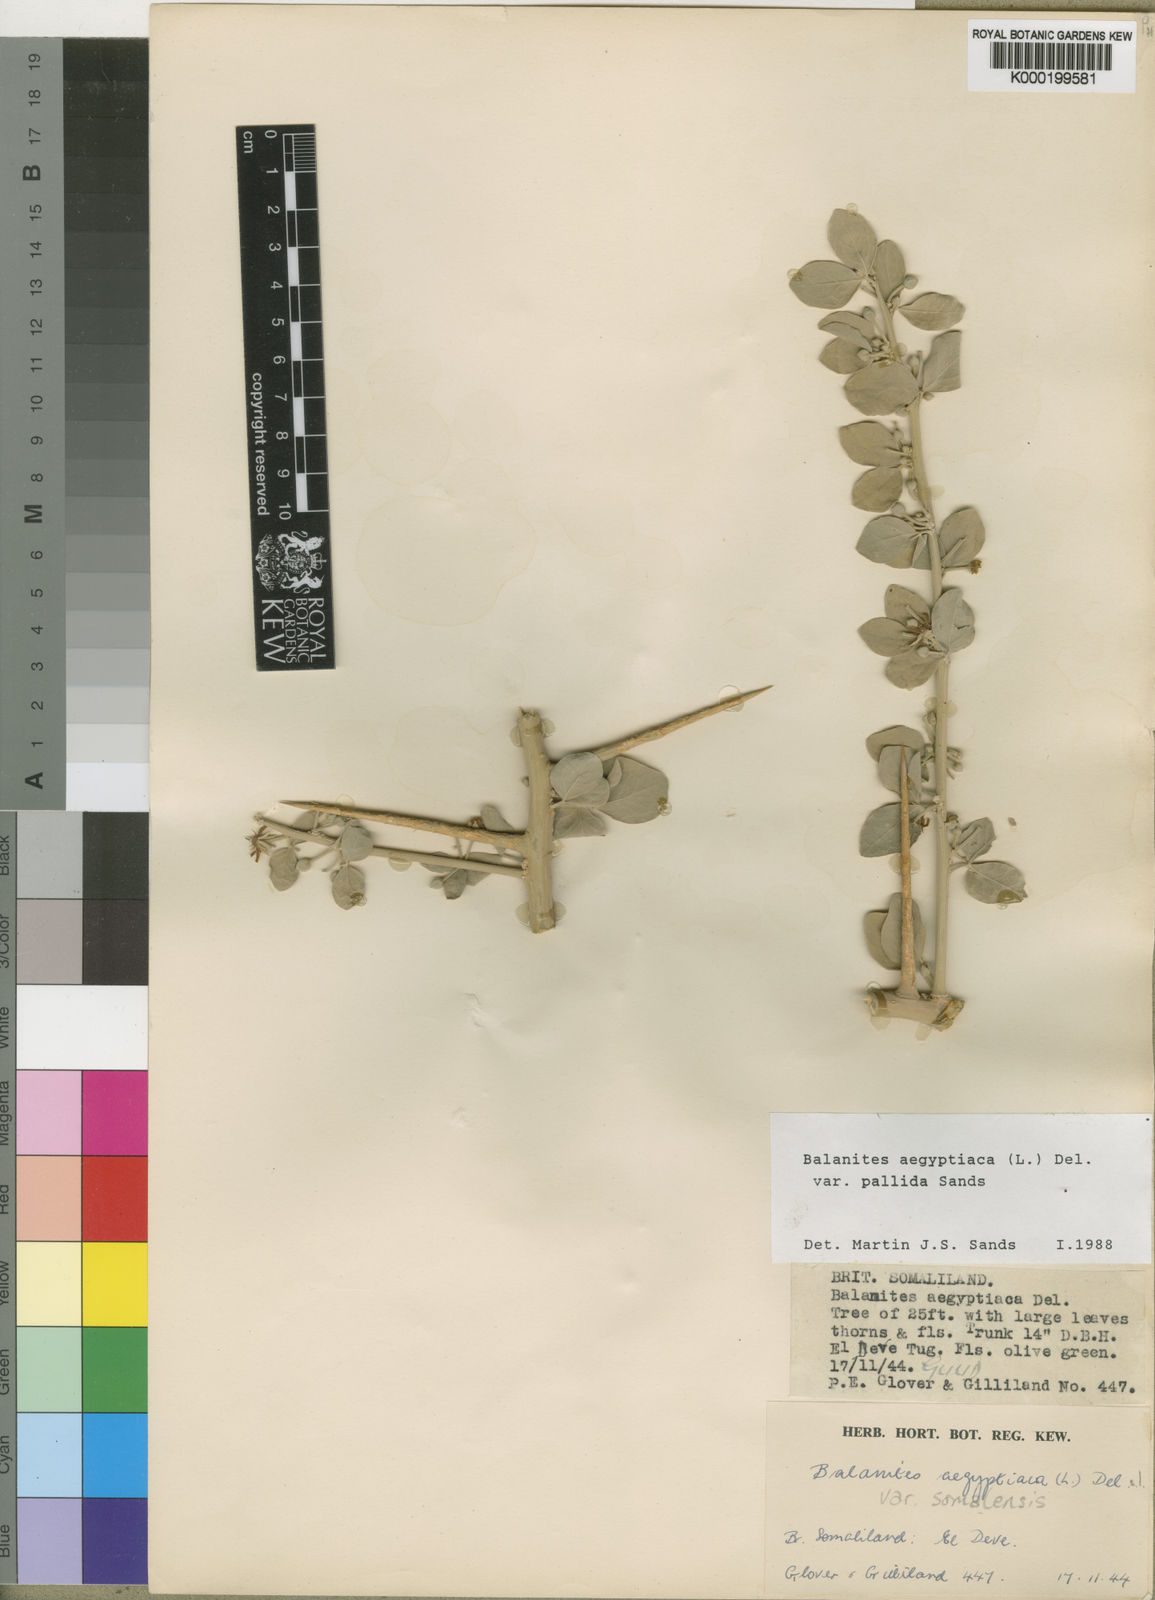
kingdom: Plantae
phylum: Tracheophyta
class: Magnoliopsida
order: Zygophyllales
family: Zygophyllaceae
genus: Balanites
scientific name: Balanites aegyptiaca
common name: Balanites
